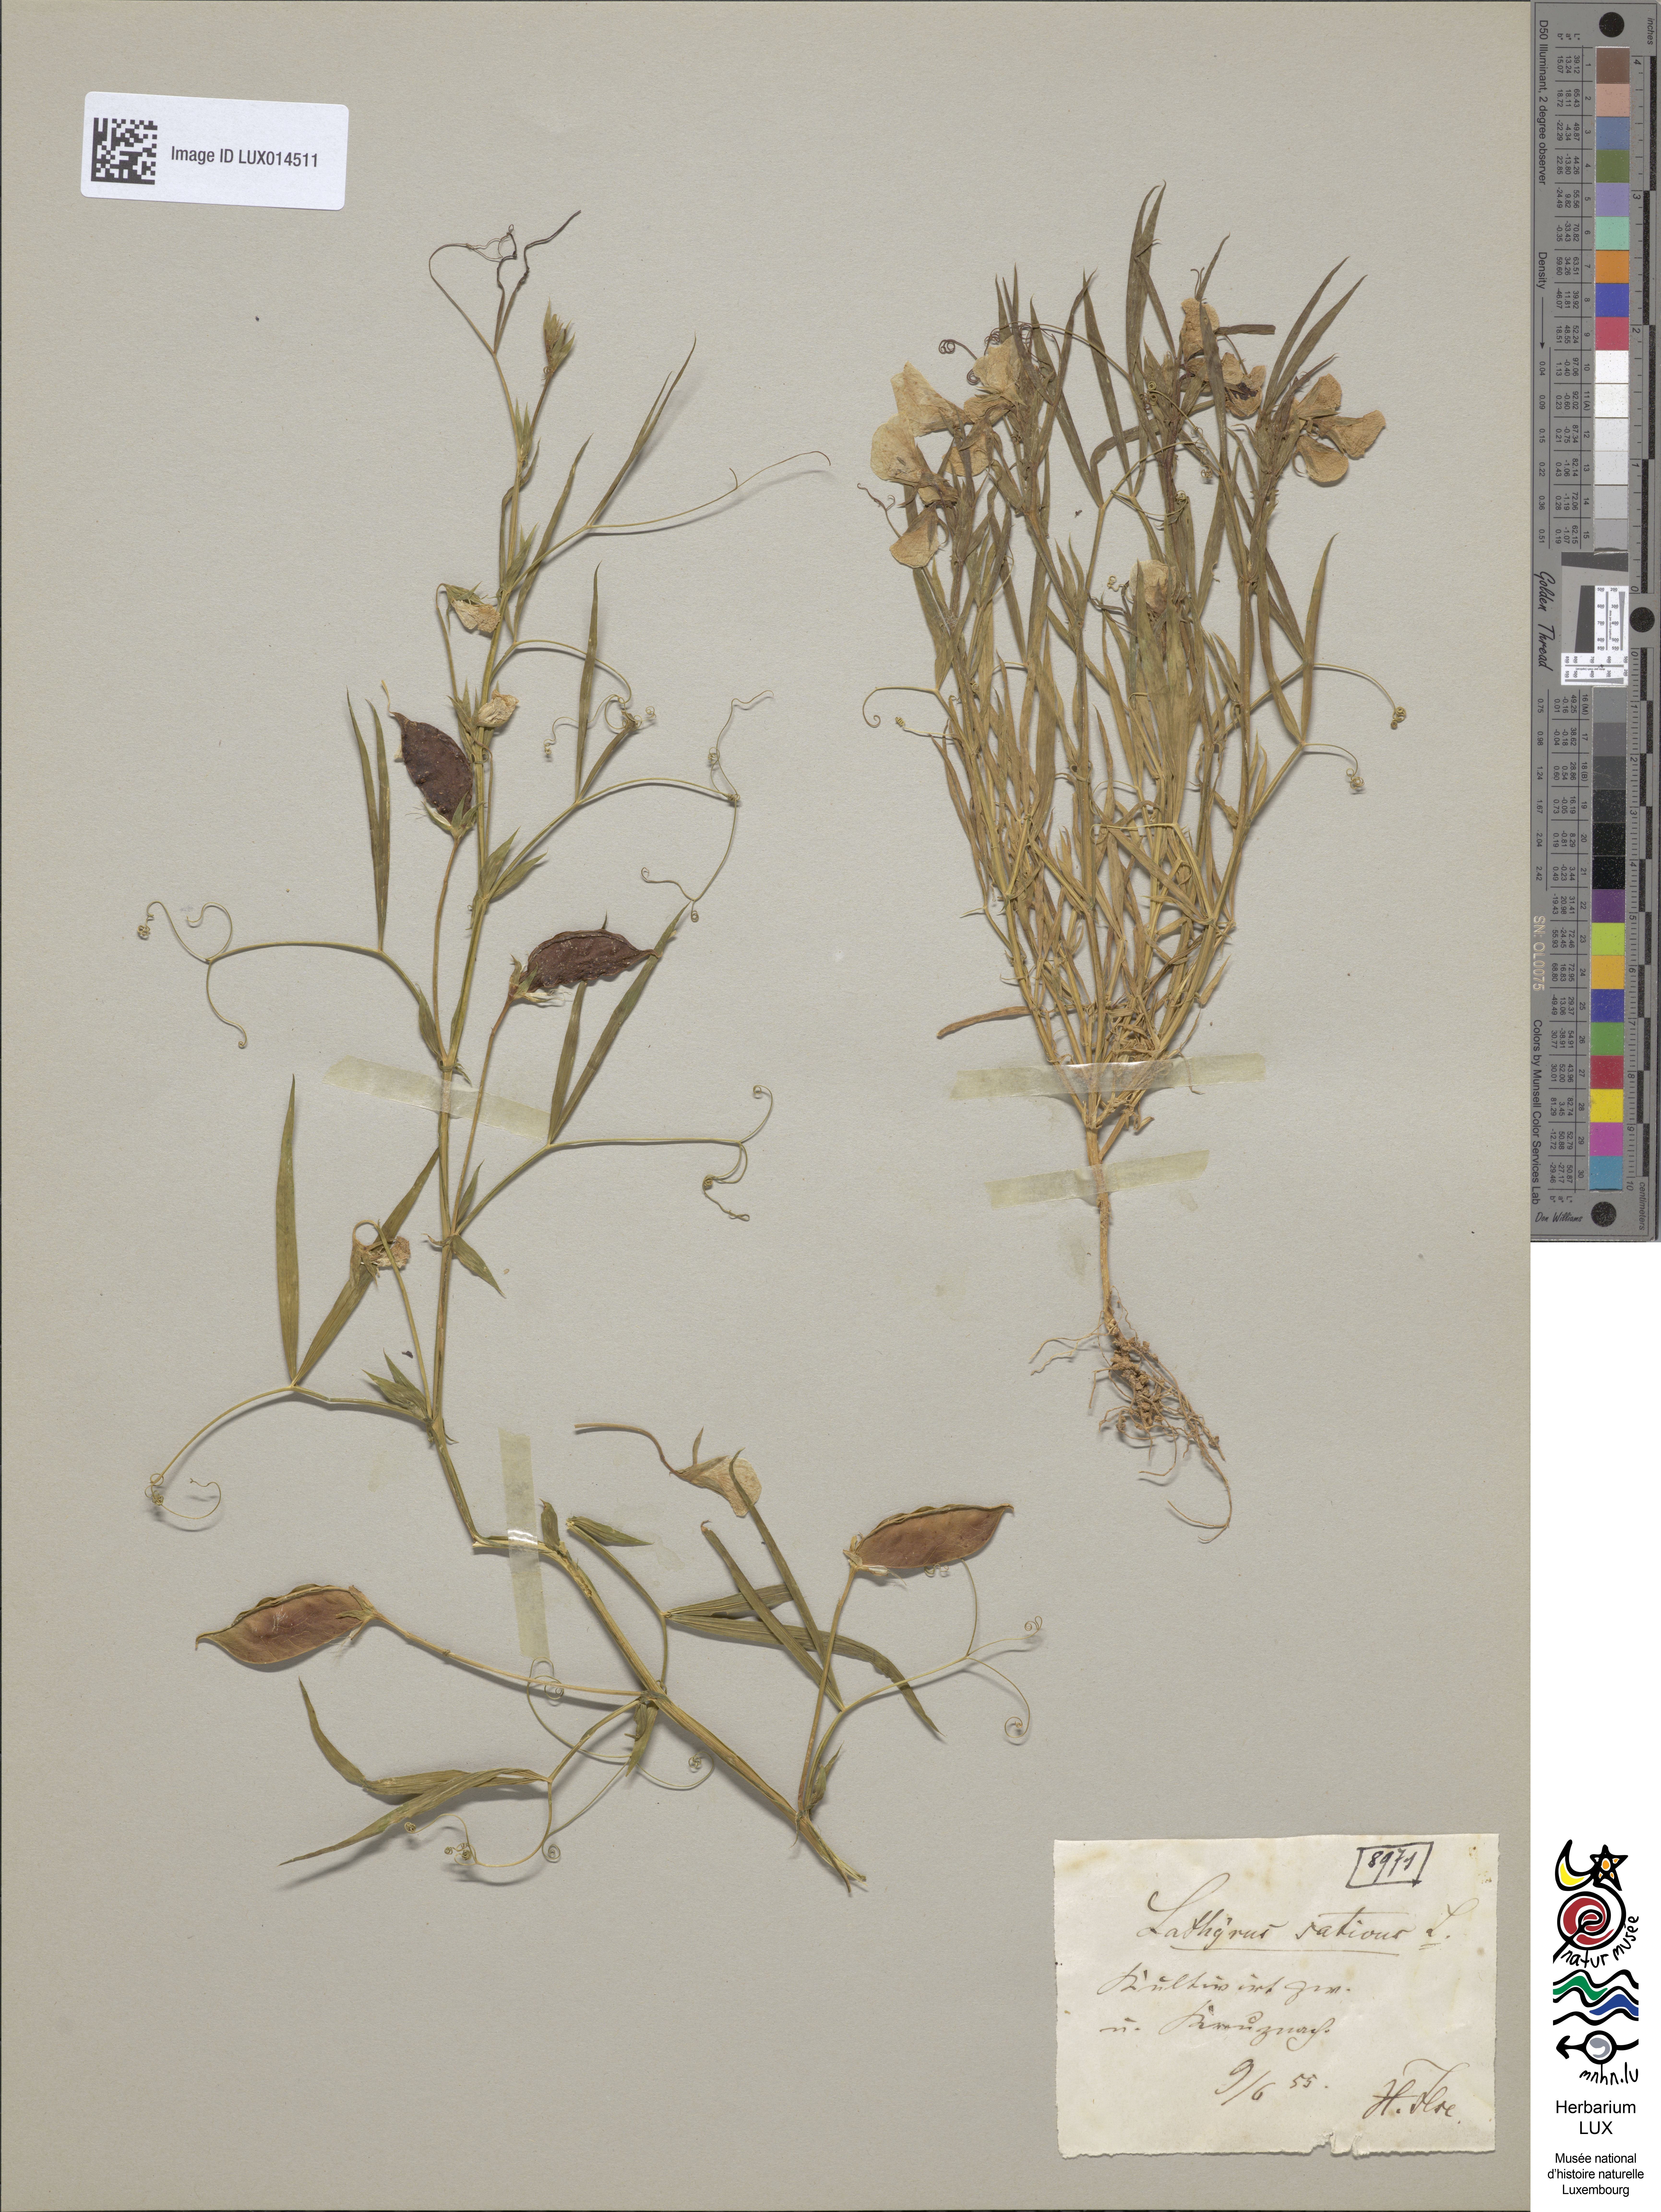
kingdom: Plantae
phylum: Tracheophyta
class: Magnoliopsida
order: Fabales
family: Fabaceae
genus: Lathyrus
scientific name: Lathyrus sativus
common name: Indian pea
